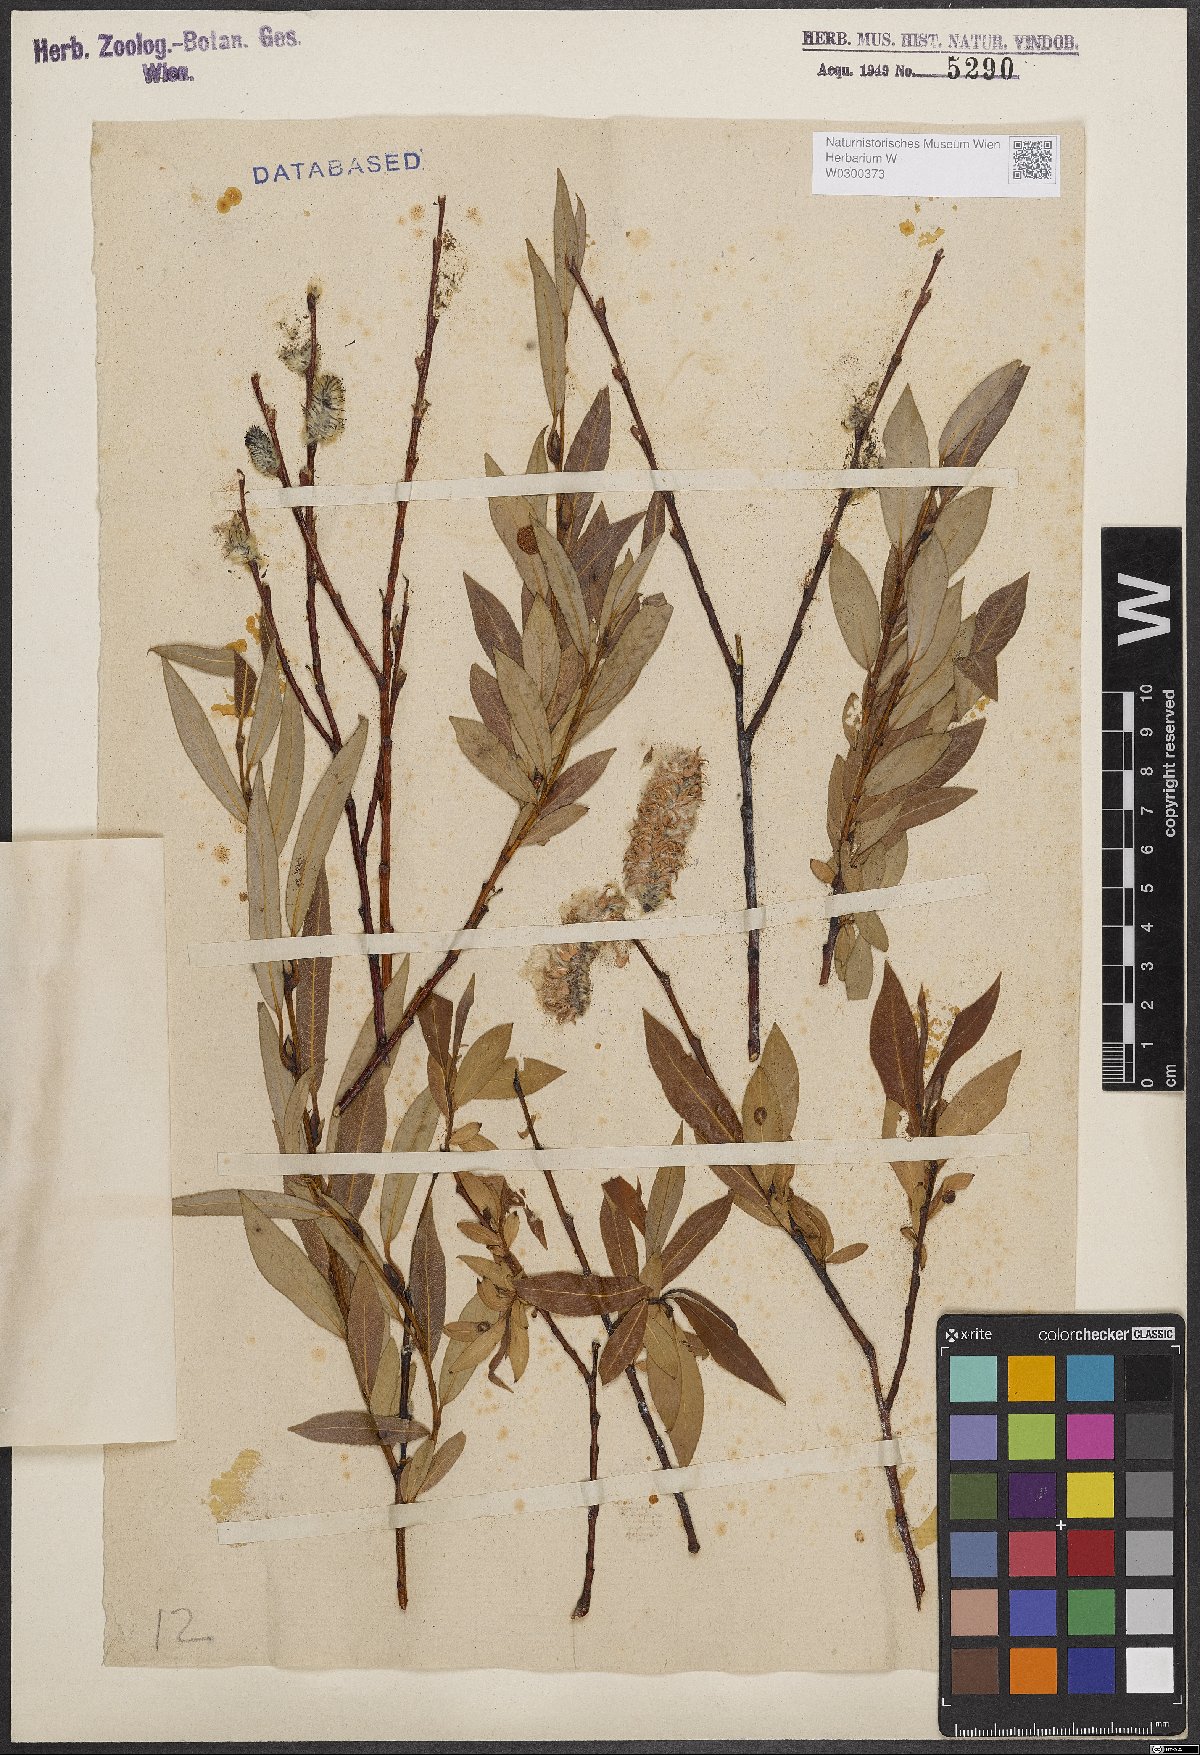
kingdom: Plantae
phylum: Tracheophyta
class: Magnoliopsida
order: Malpighiales
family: Salicaceae
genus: Salix
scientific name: Salix daphnoides
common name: European violet-willow
